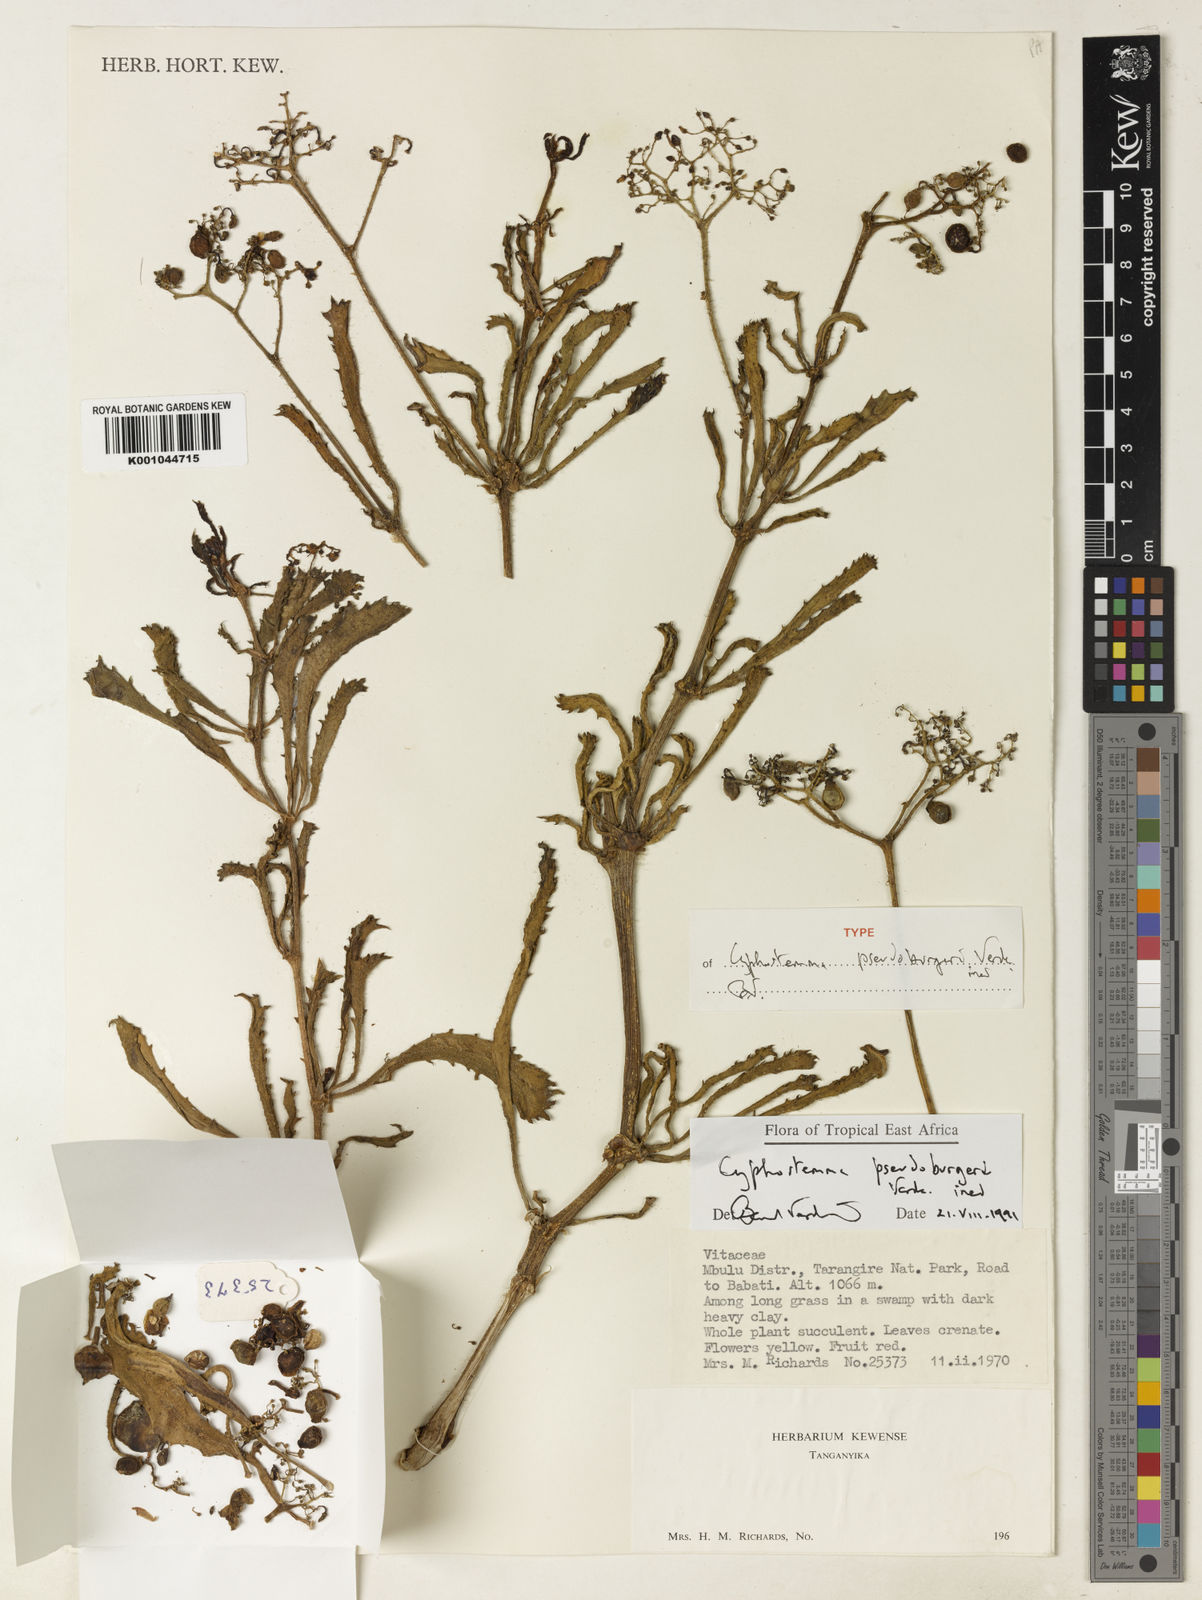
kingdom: Plantae
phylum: Tracheophyta
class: Magnoliopsida
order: Vitales
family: Vitaceae
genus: Cyphostemma
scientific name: Cyphostemma pseudoburgeri
